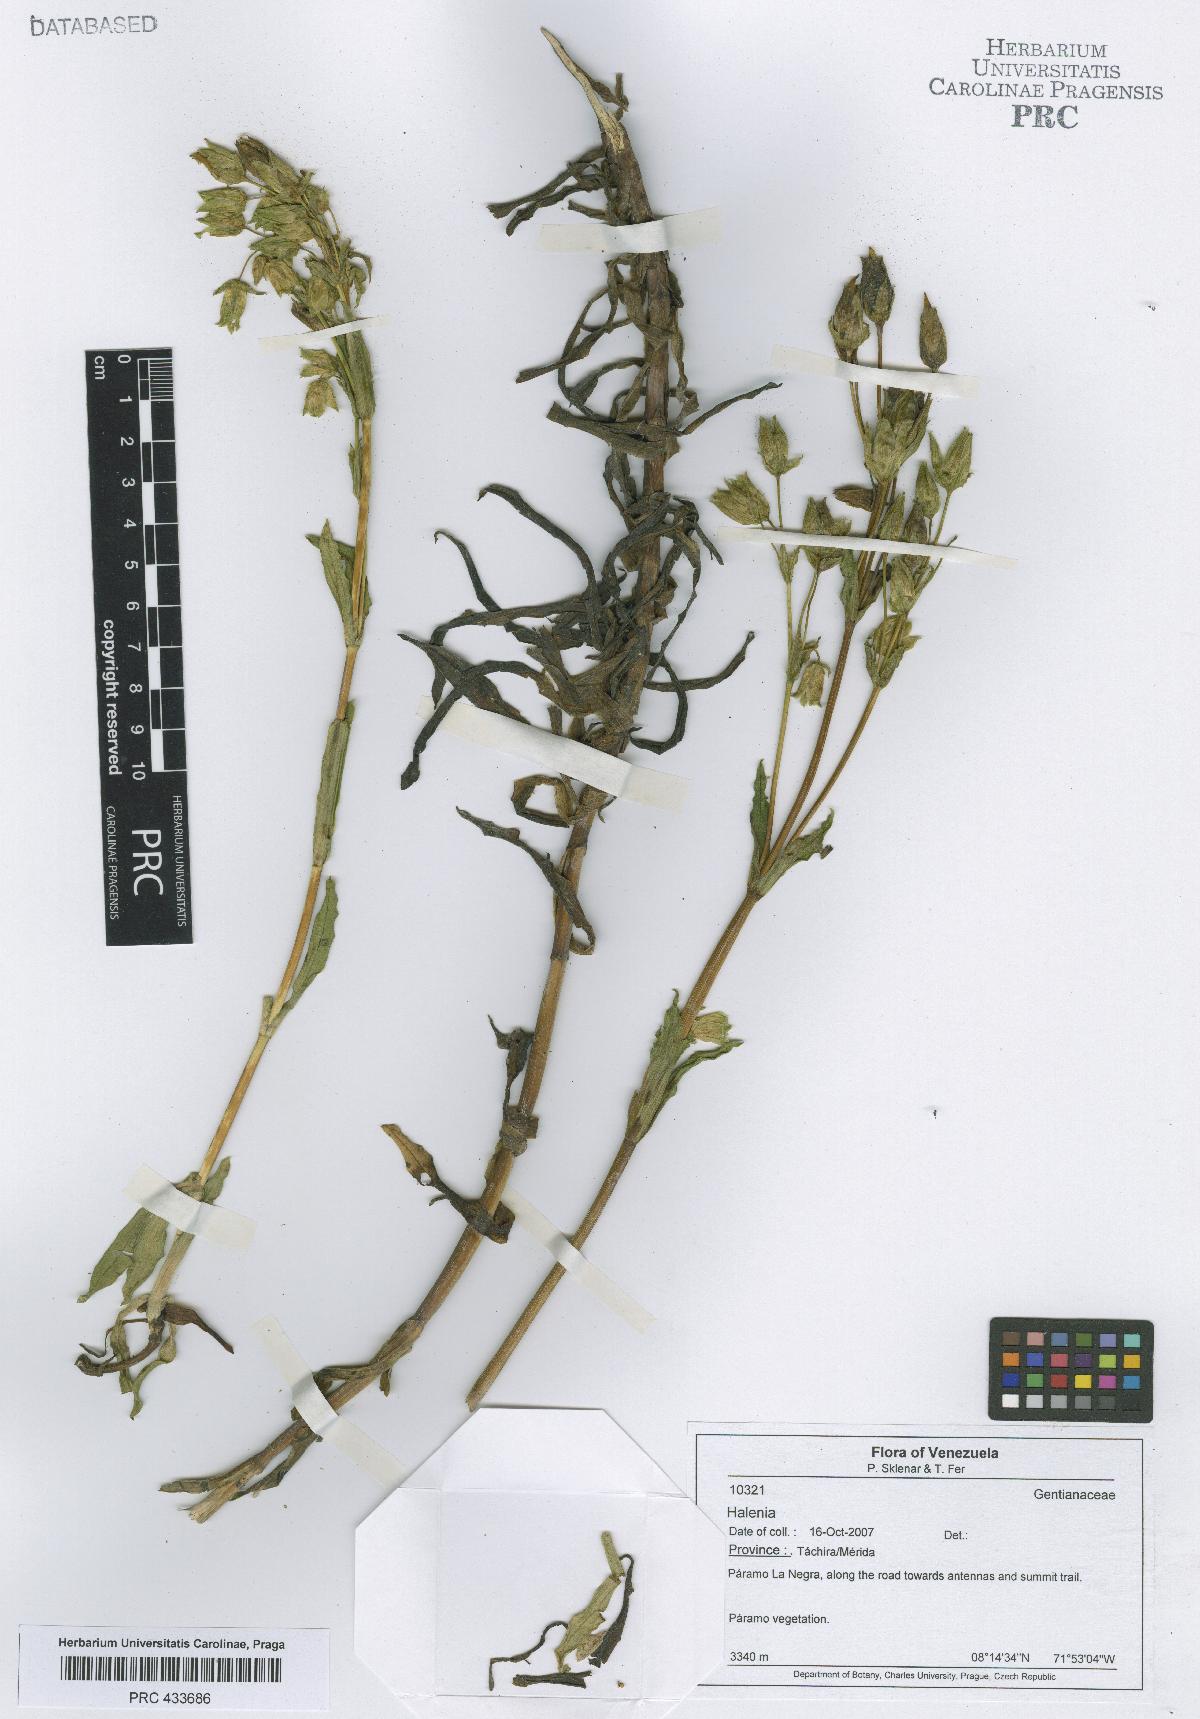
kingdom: Plantae
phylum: Tracheophyta
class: Magnoliopsida
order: Gentianales
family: Gentianaceae
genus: Halenia
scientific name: Halenia
